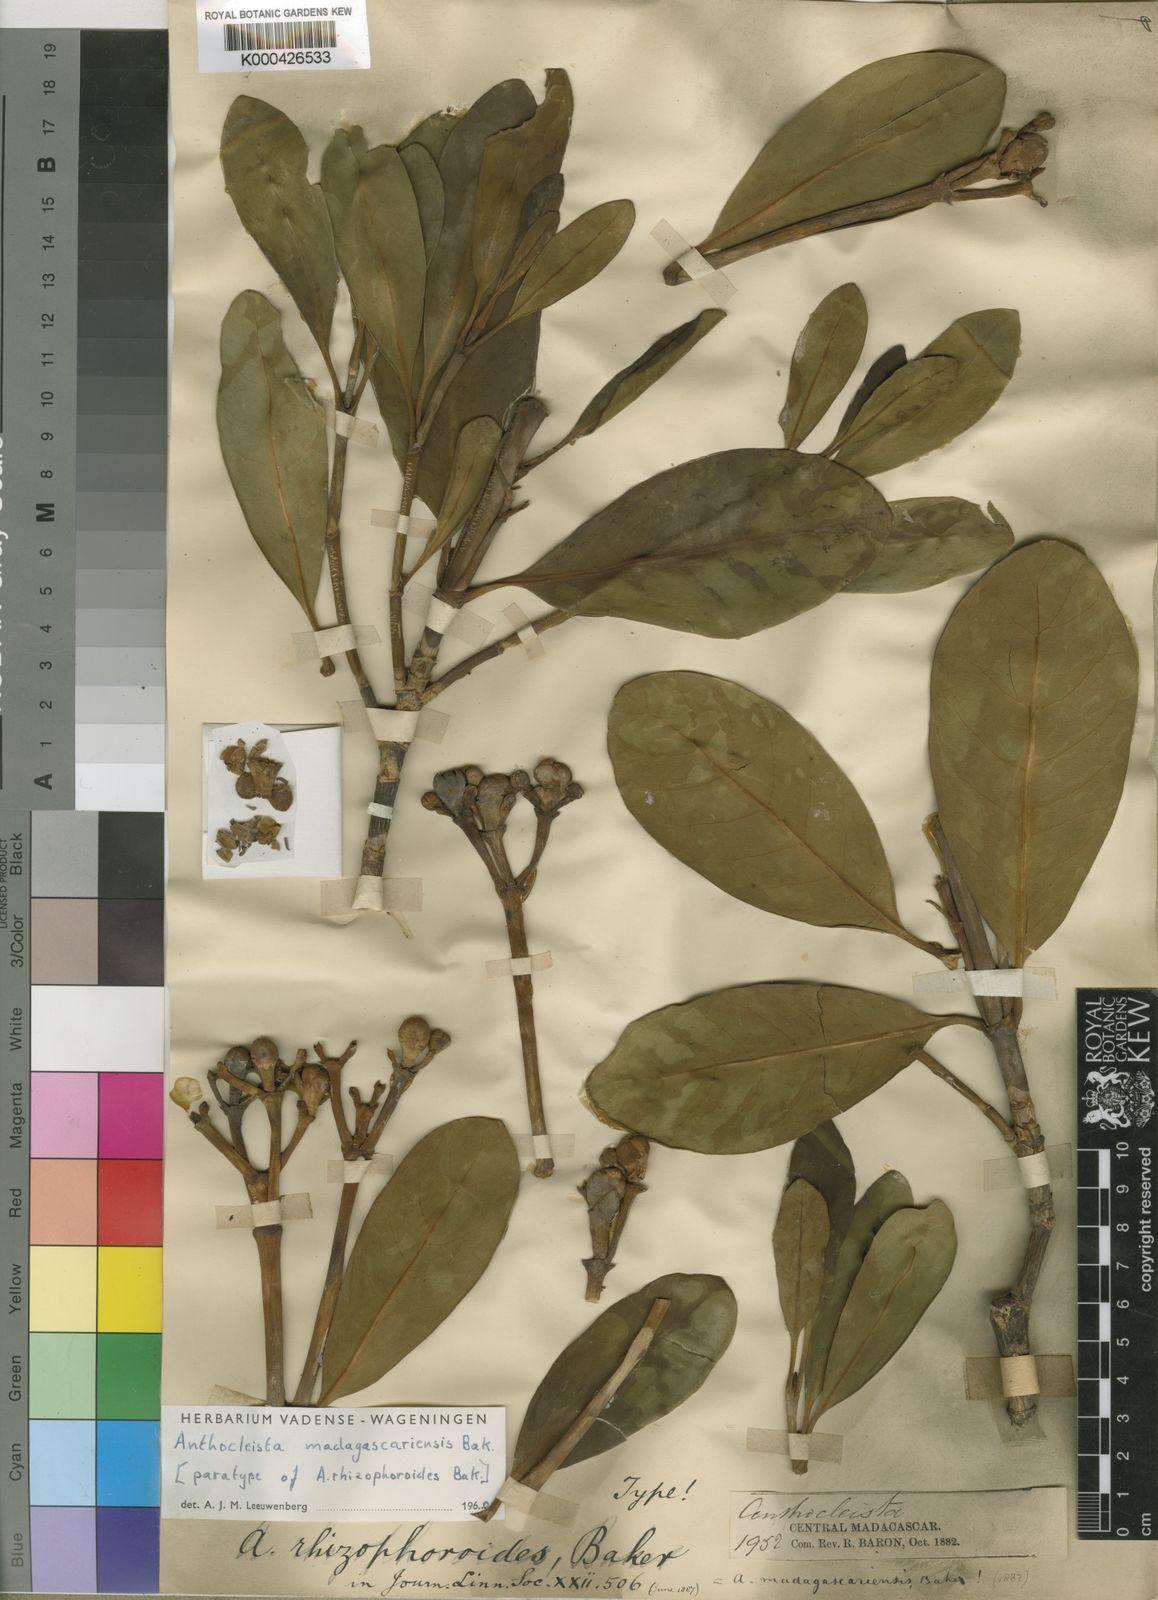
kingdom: Plantae
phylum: Tracheophyta
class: Magnoliopsida
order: Gentianales
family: Gentianaceae
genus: Anthocleista
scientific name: Anthocleista madagascariensis
